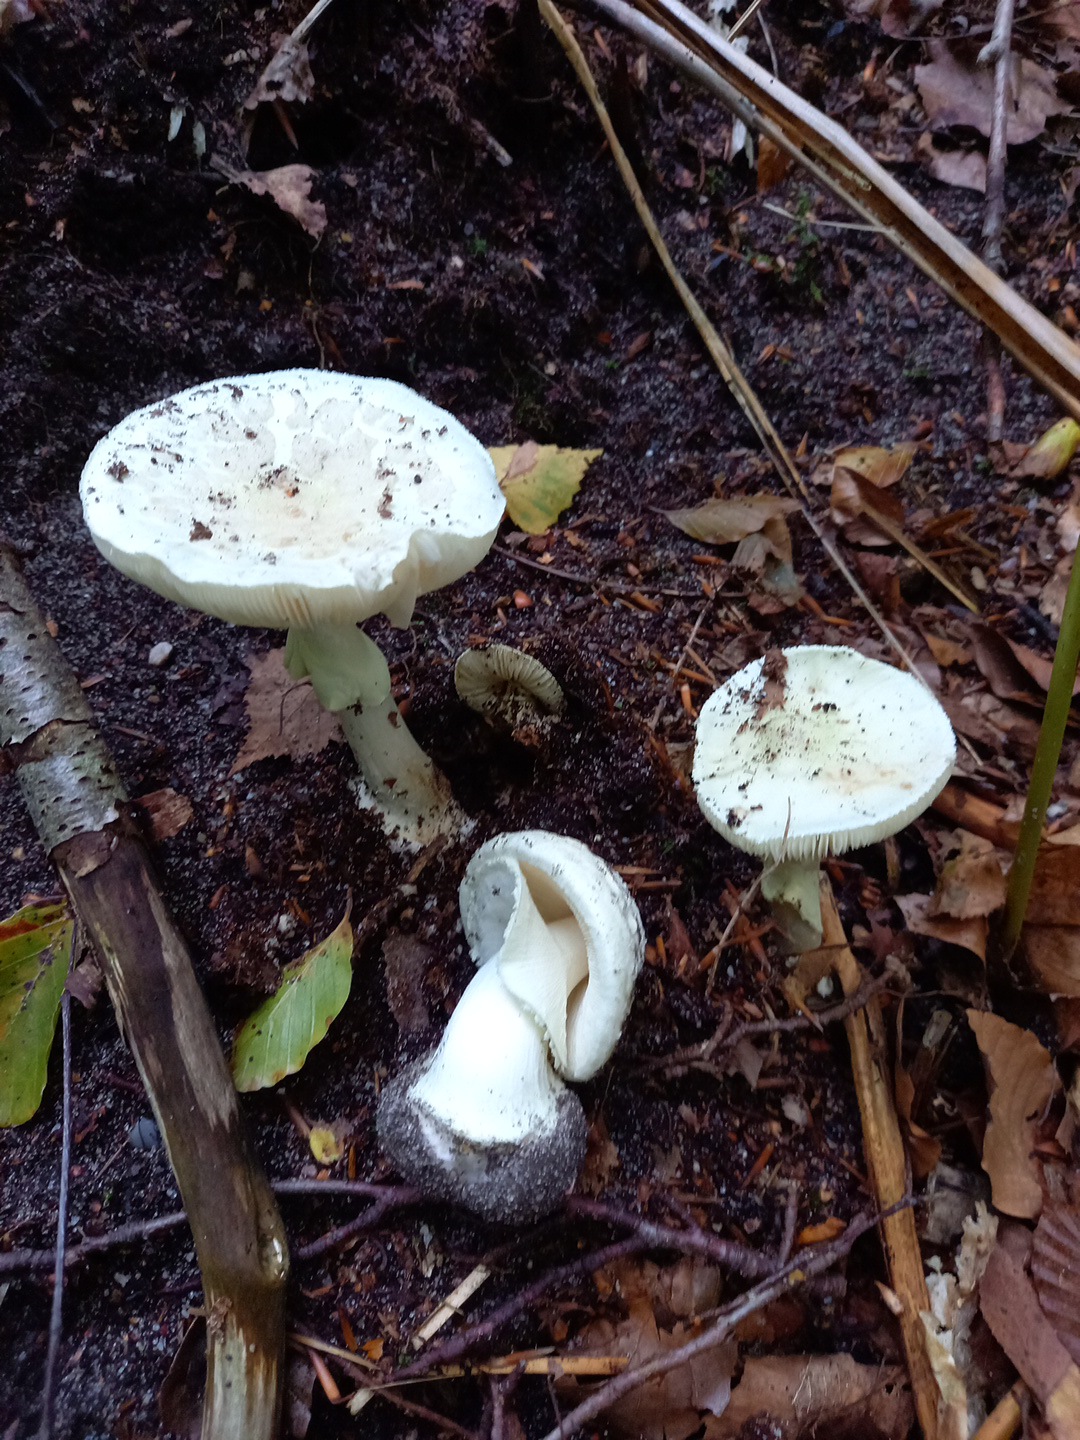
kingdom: Fungi
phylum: Basidiomycota
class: Agaricomycetes
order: Agaricales
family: Amanitaceae
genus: Amanita
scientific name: Amanita citrina
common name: kugleknoldet fluesvamp
